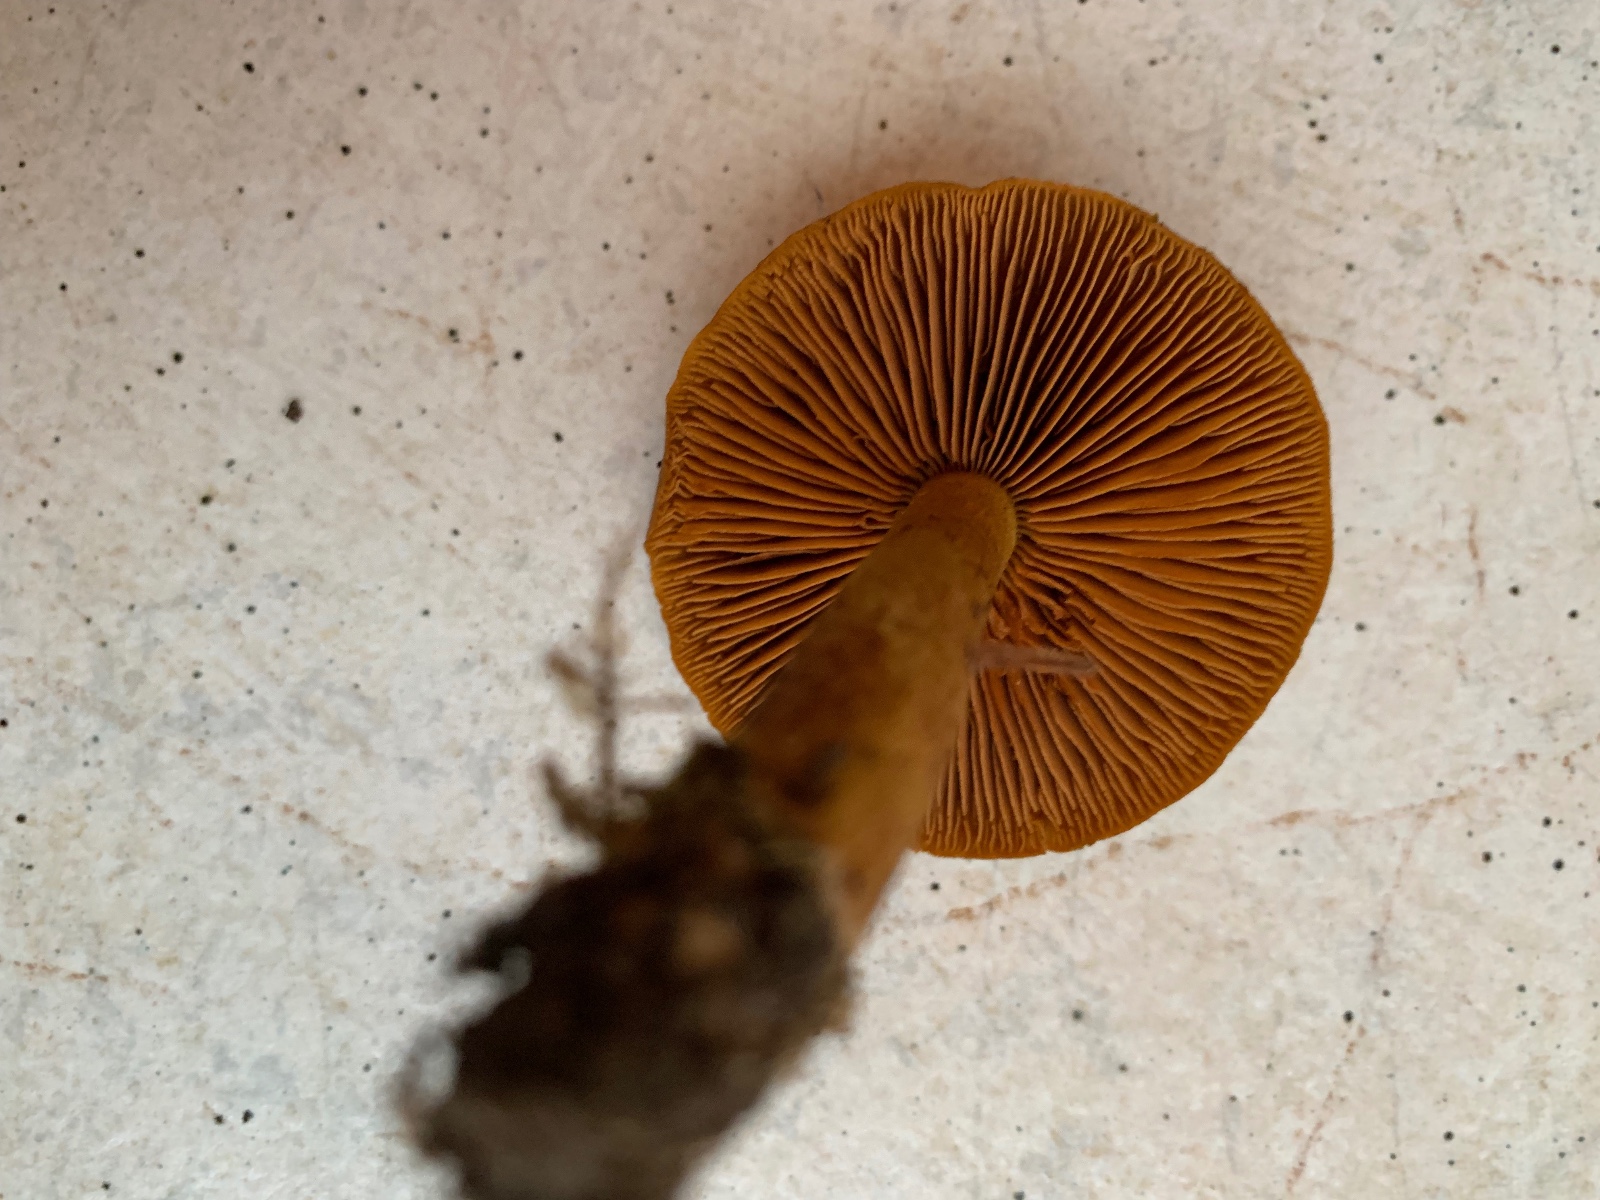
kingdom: Fungi
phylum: Basidiomycota
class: Agaricomycetes
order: Agaricales
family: Cortinariaceae
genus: Cortinarius
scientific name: Cortinarius
